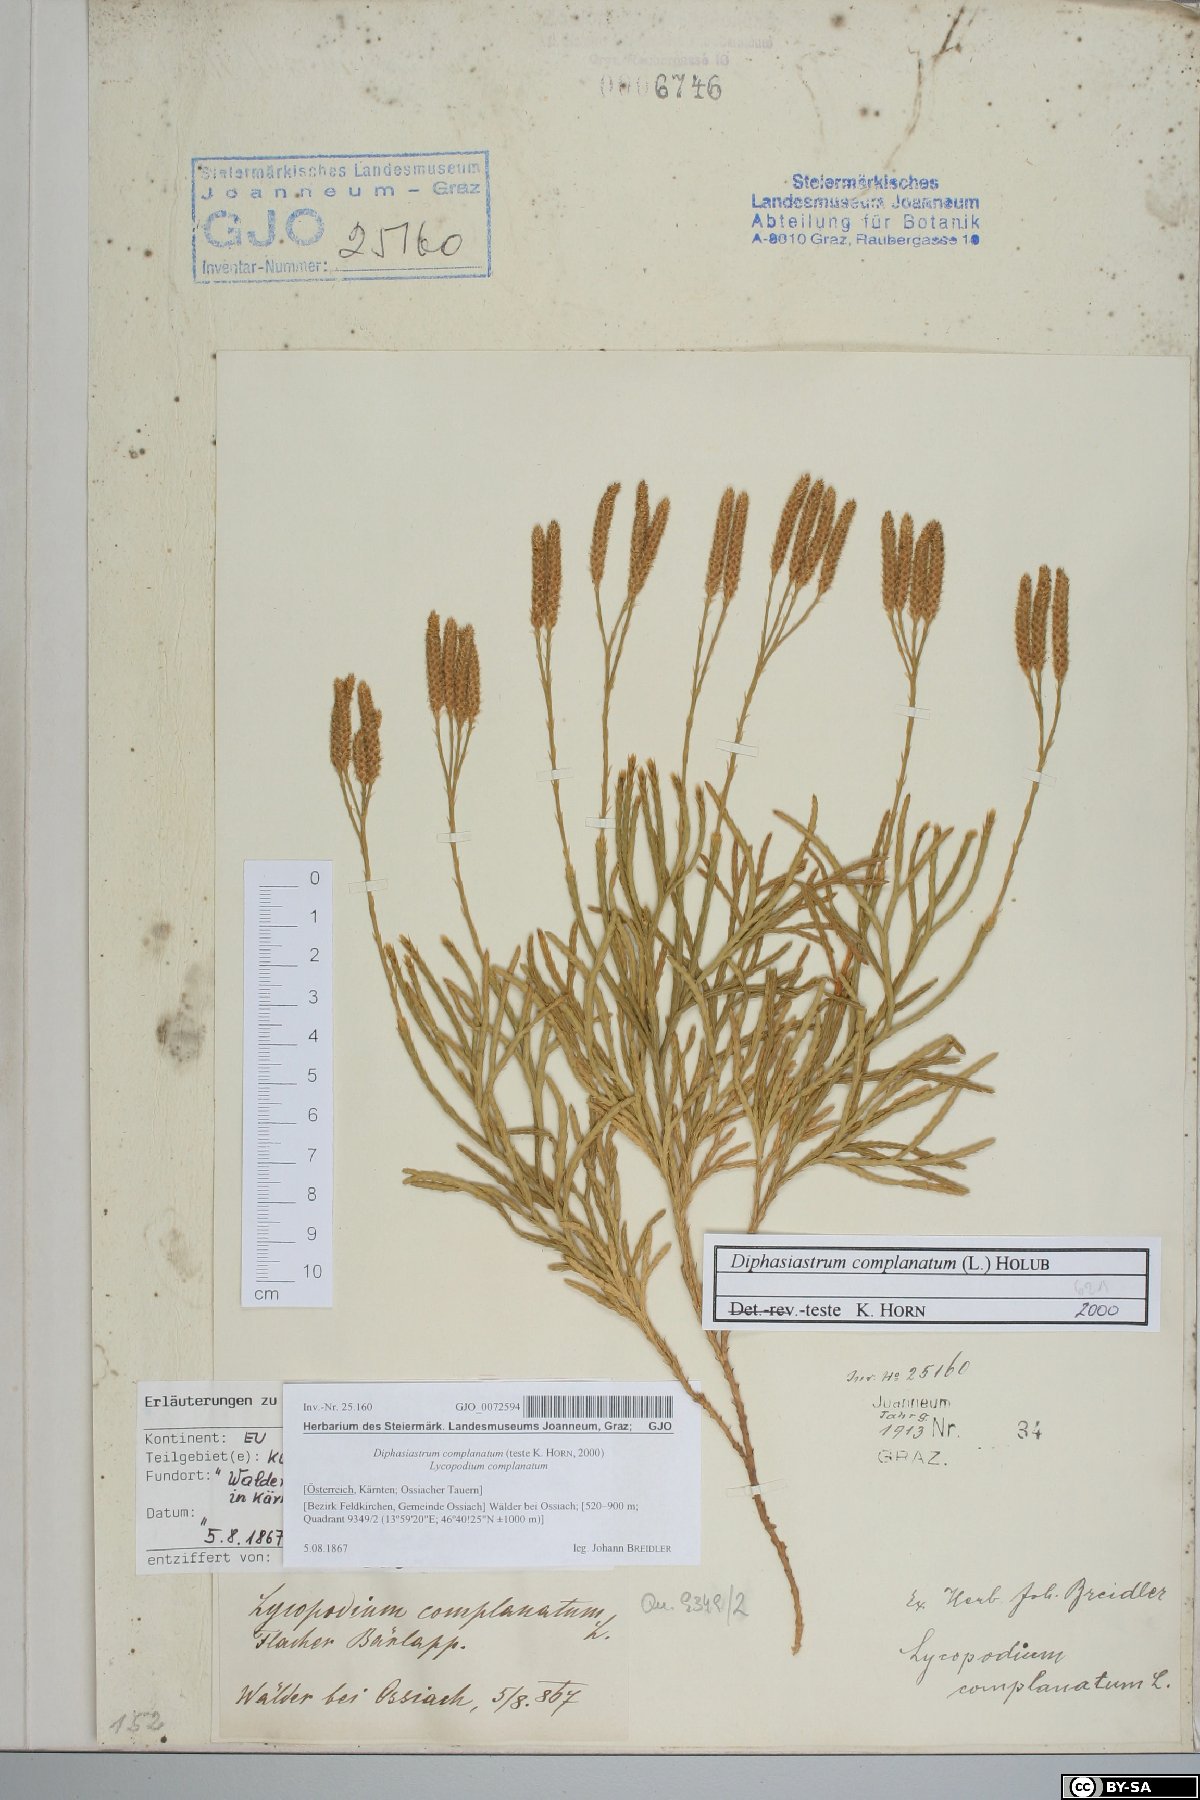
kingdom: Plantae
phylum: Tracheophyta
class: Lycopodiopsida
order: Lycopodiales
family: Lycopodiaceae
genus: Diphasiastrum
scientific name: Diphasiastrum complanatum
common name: Northern running-pine
